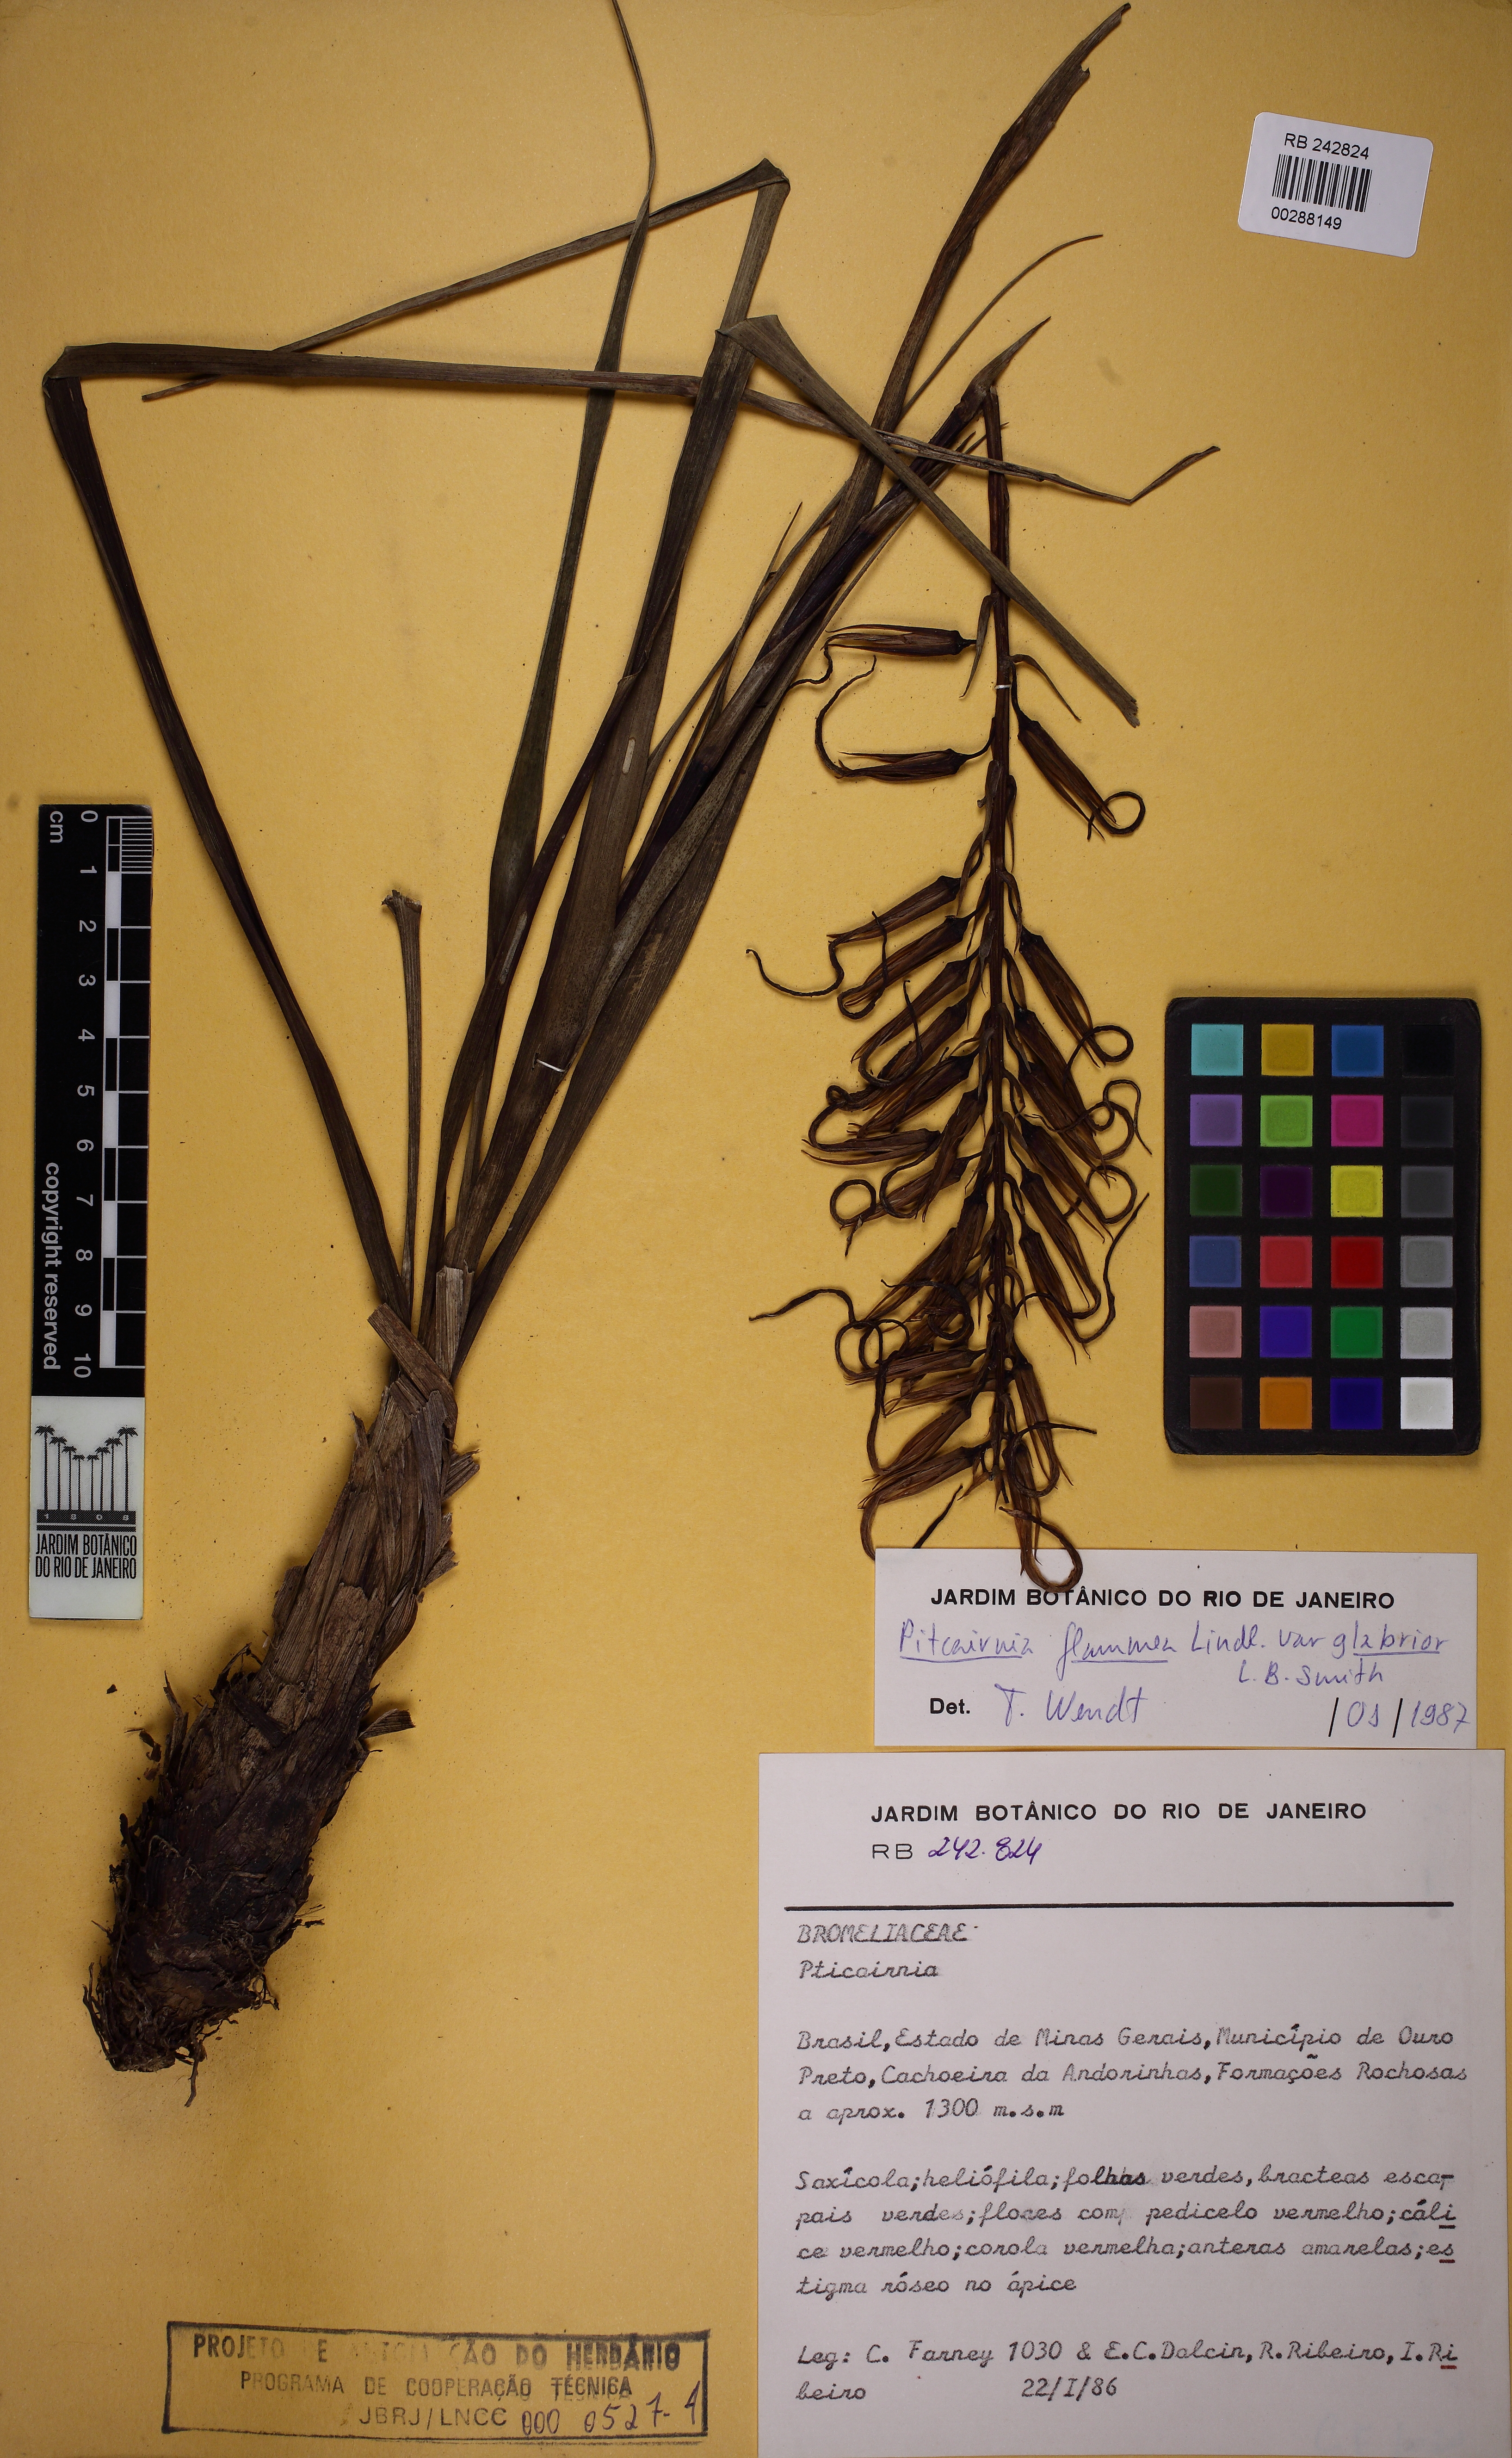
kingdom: Plantae
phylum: Tracheophyta
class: Liliopsida
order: Poales
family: Bromeliaceae
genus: Pitcairnia
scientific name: Pitcairnia flammea
